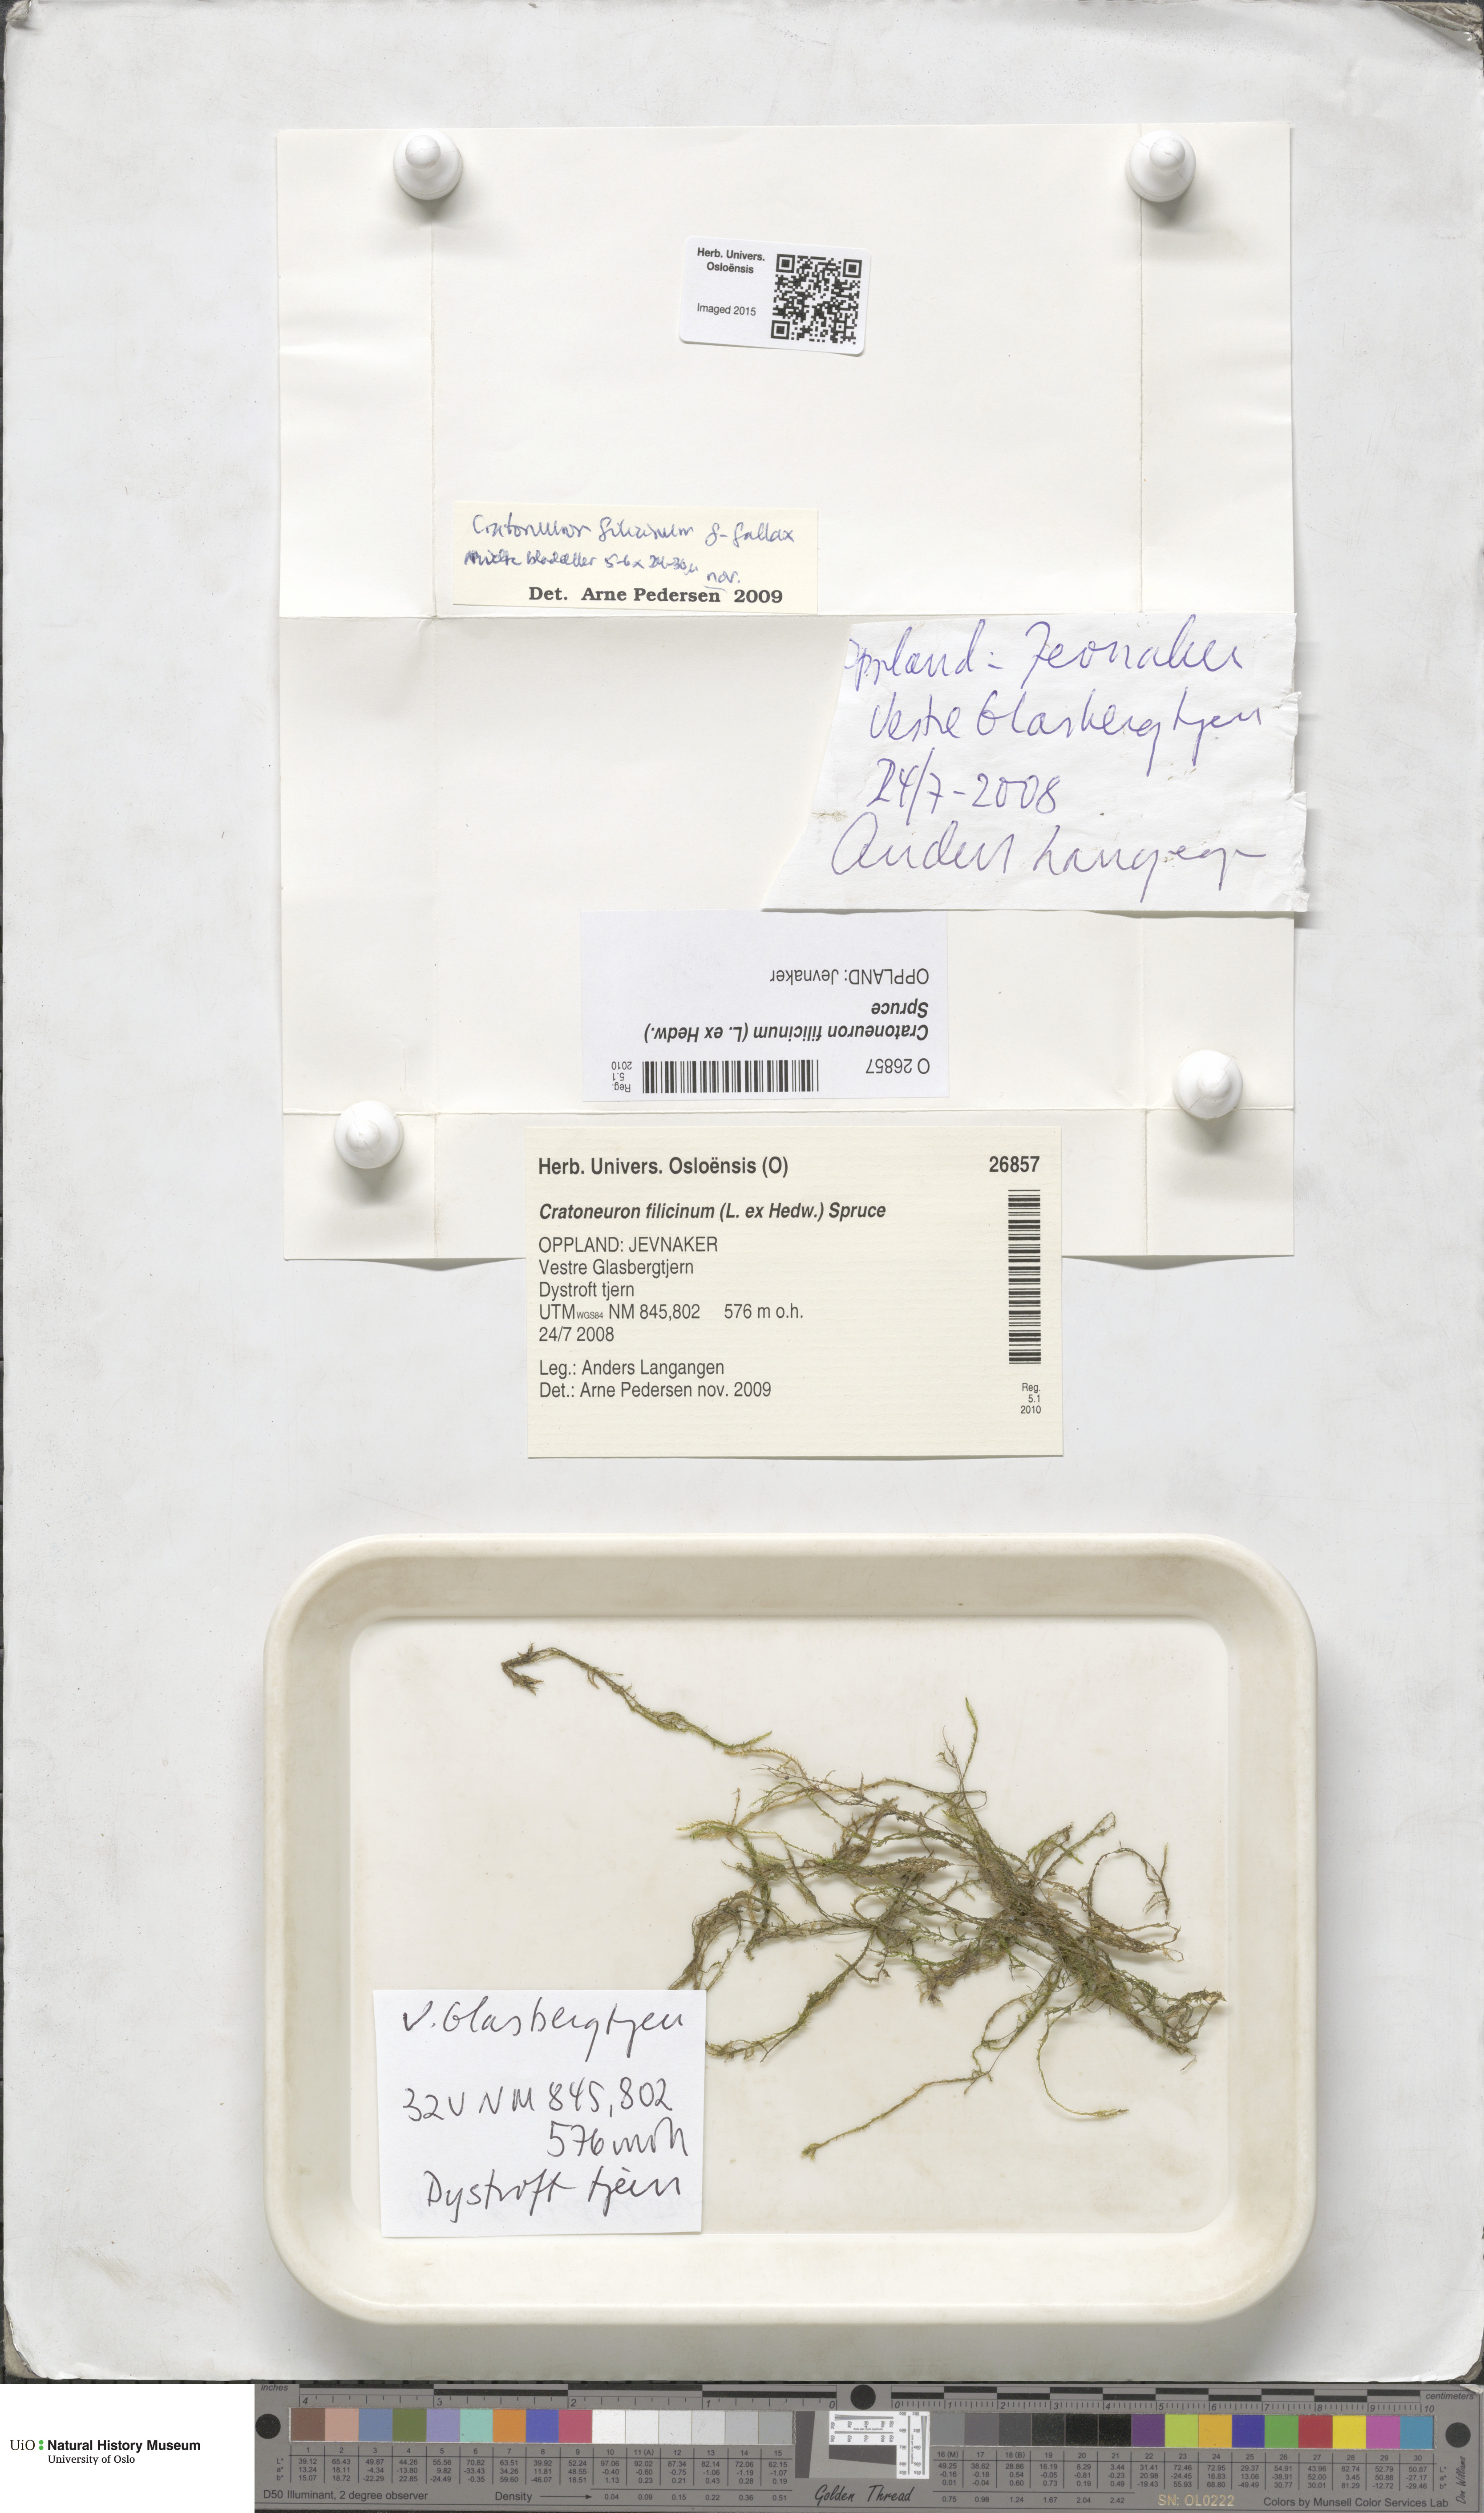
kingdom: Plantae
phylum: Bryophyta
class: Bryopsida
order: Hypnales
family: Amblystegiaceae
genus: Cratoneuron
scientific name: Cratoneuron filicinum
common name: Fern-leaved hook moss
